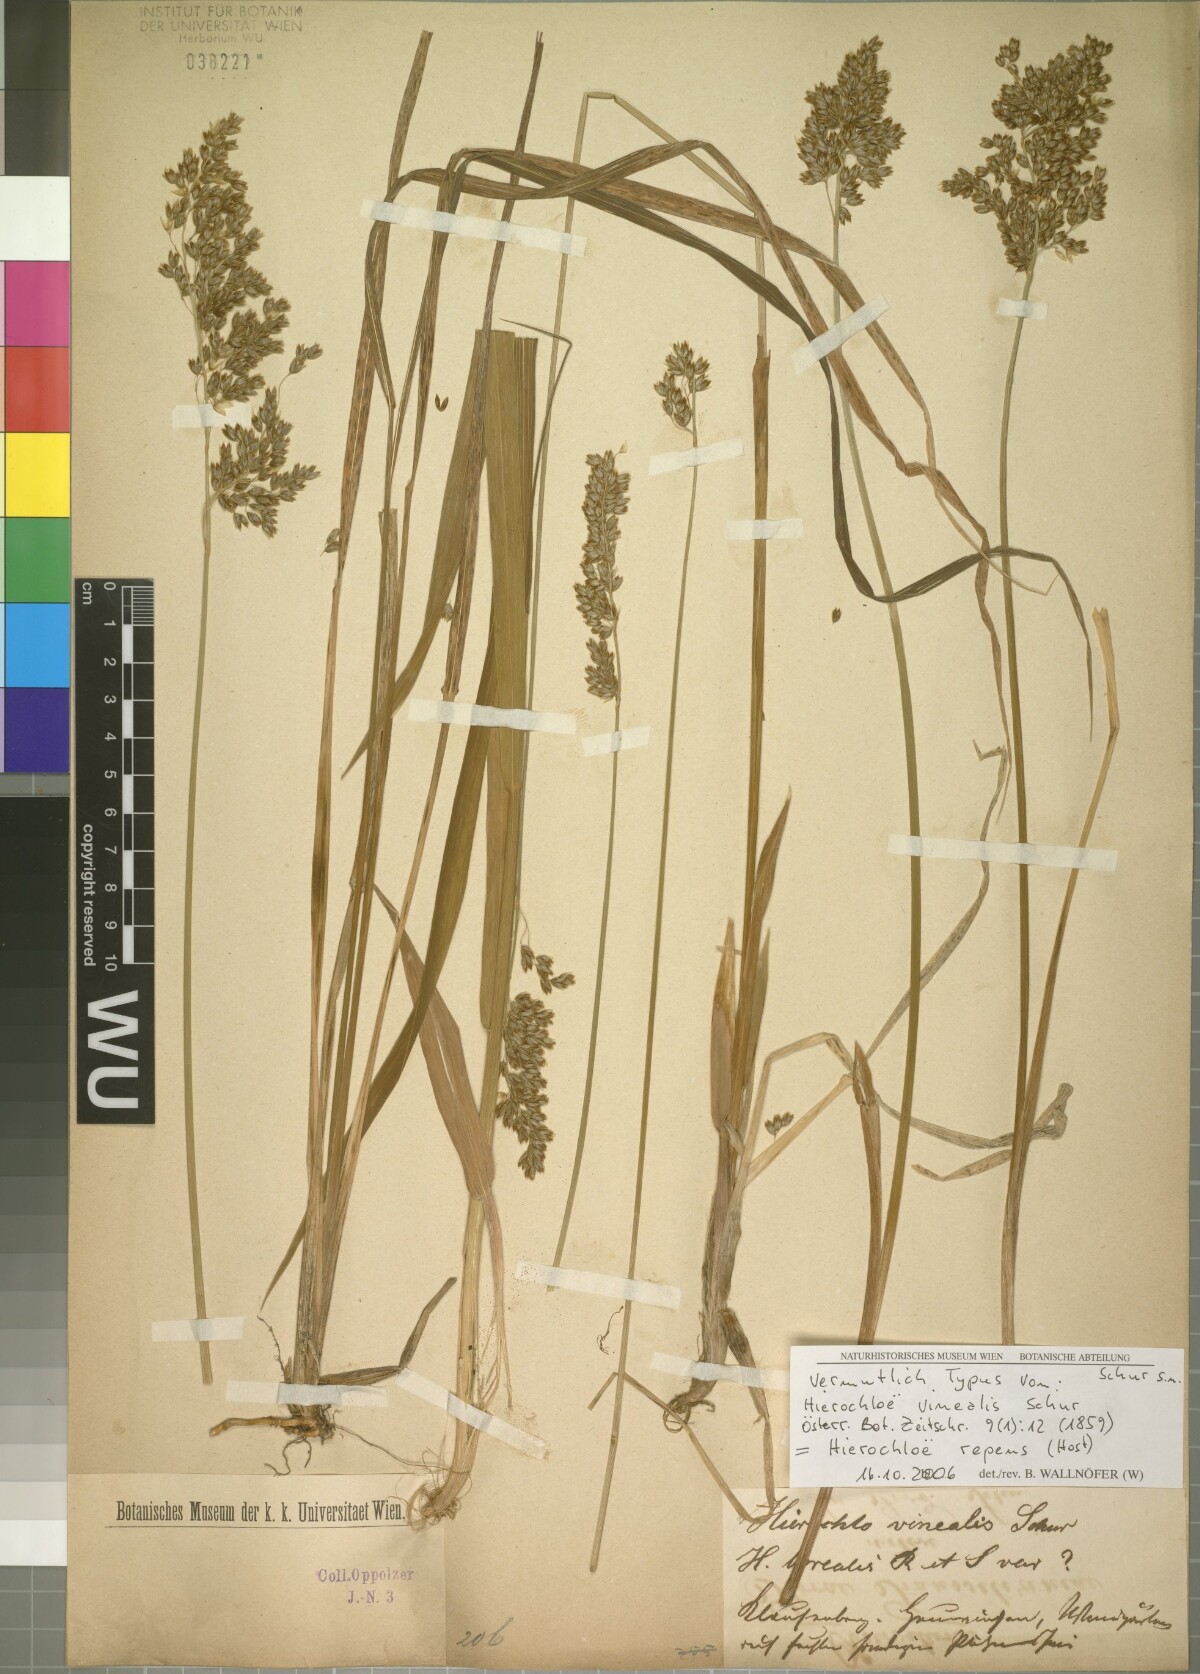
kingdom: Plantae
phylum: Tracheophyta
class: Liliopsida
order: Poales
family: Poaceae
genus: Anthoxanthum
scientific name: Anthoxanthum repens
